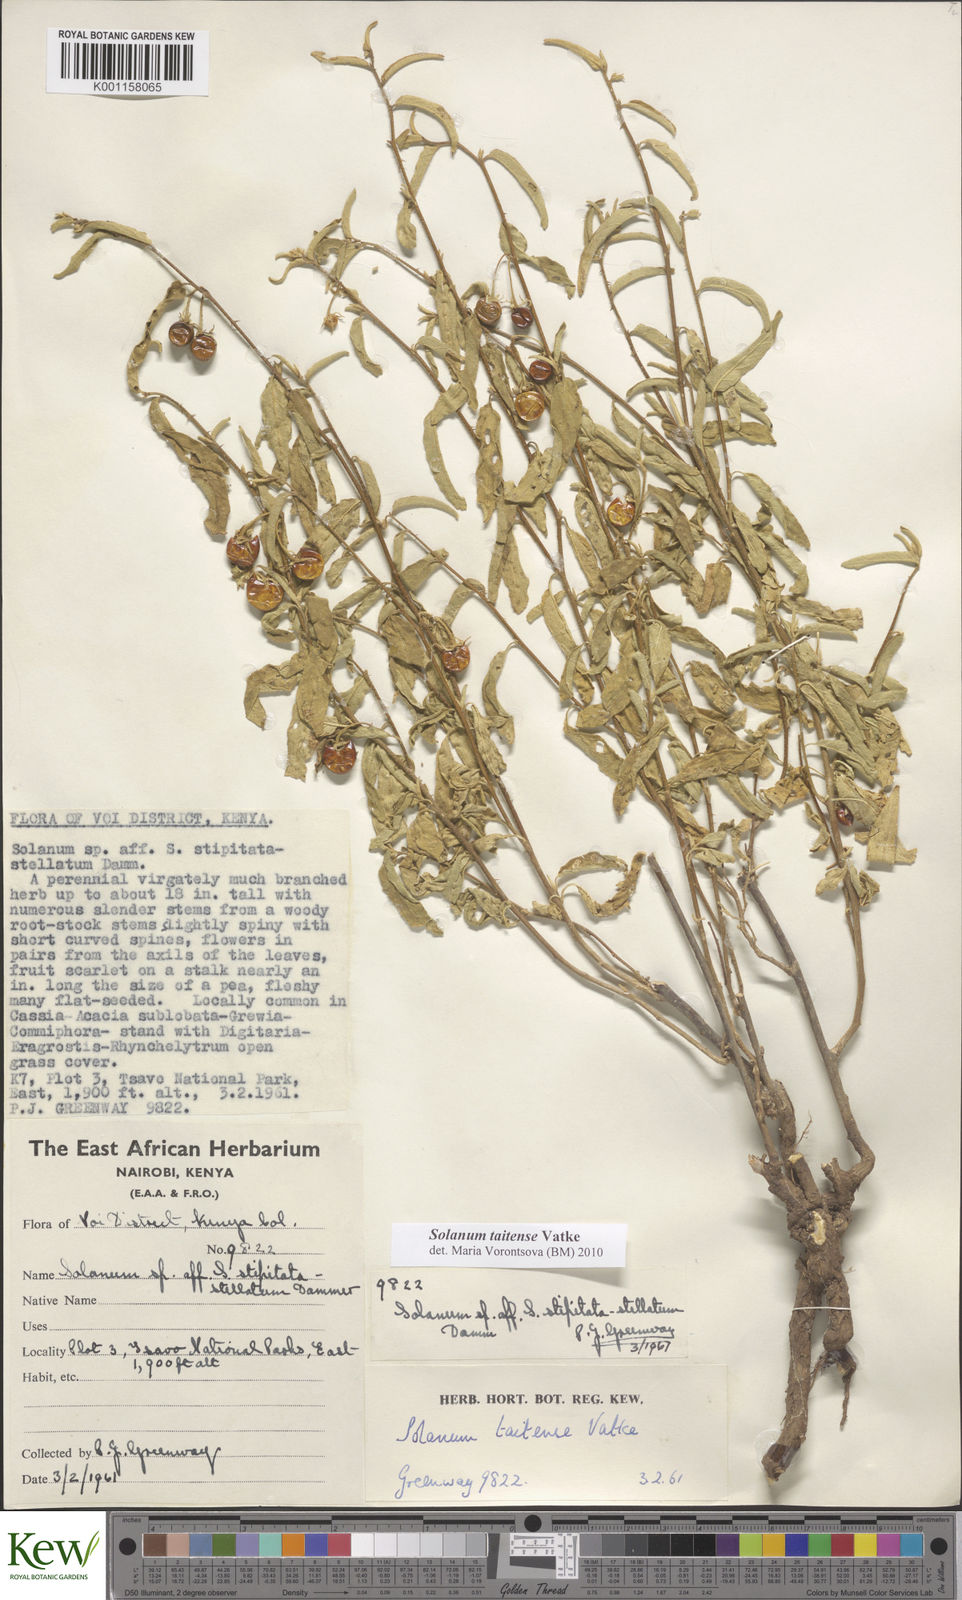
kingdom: Plantae
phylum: Tracheophyta
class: Magnoliopsida
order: Solanales
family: Solanaceae
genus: Solanum
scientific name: Solanum taitense
